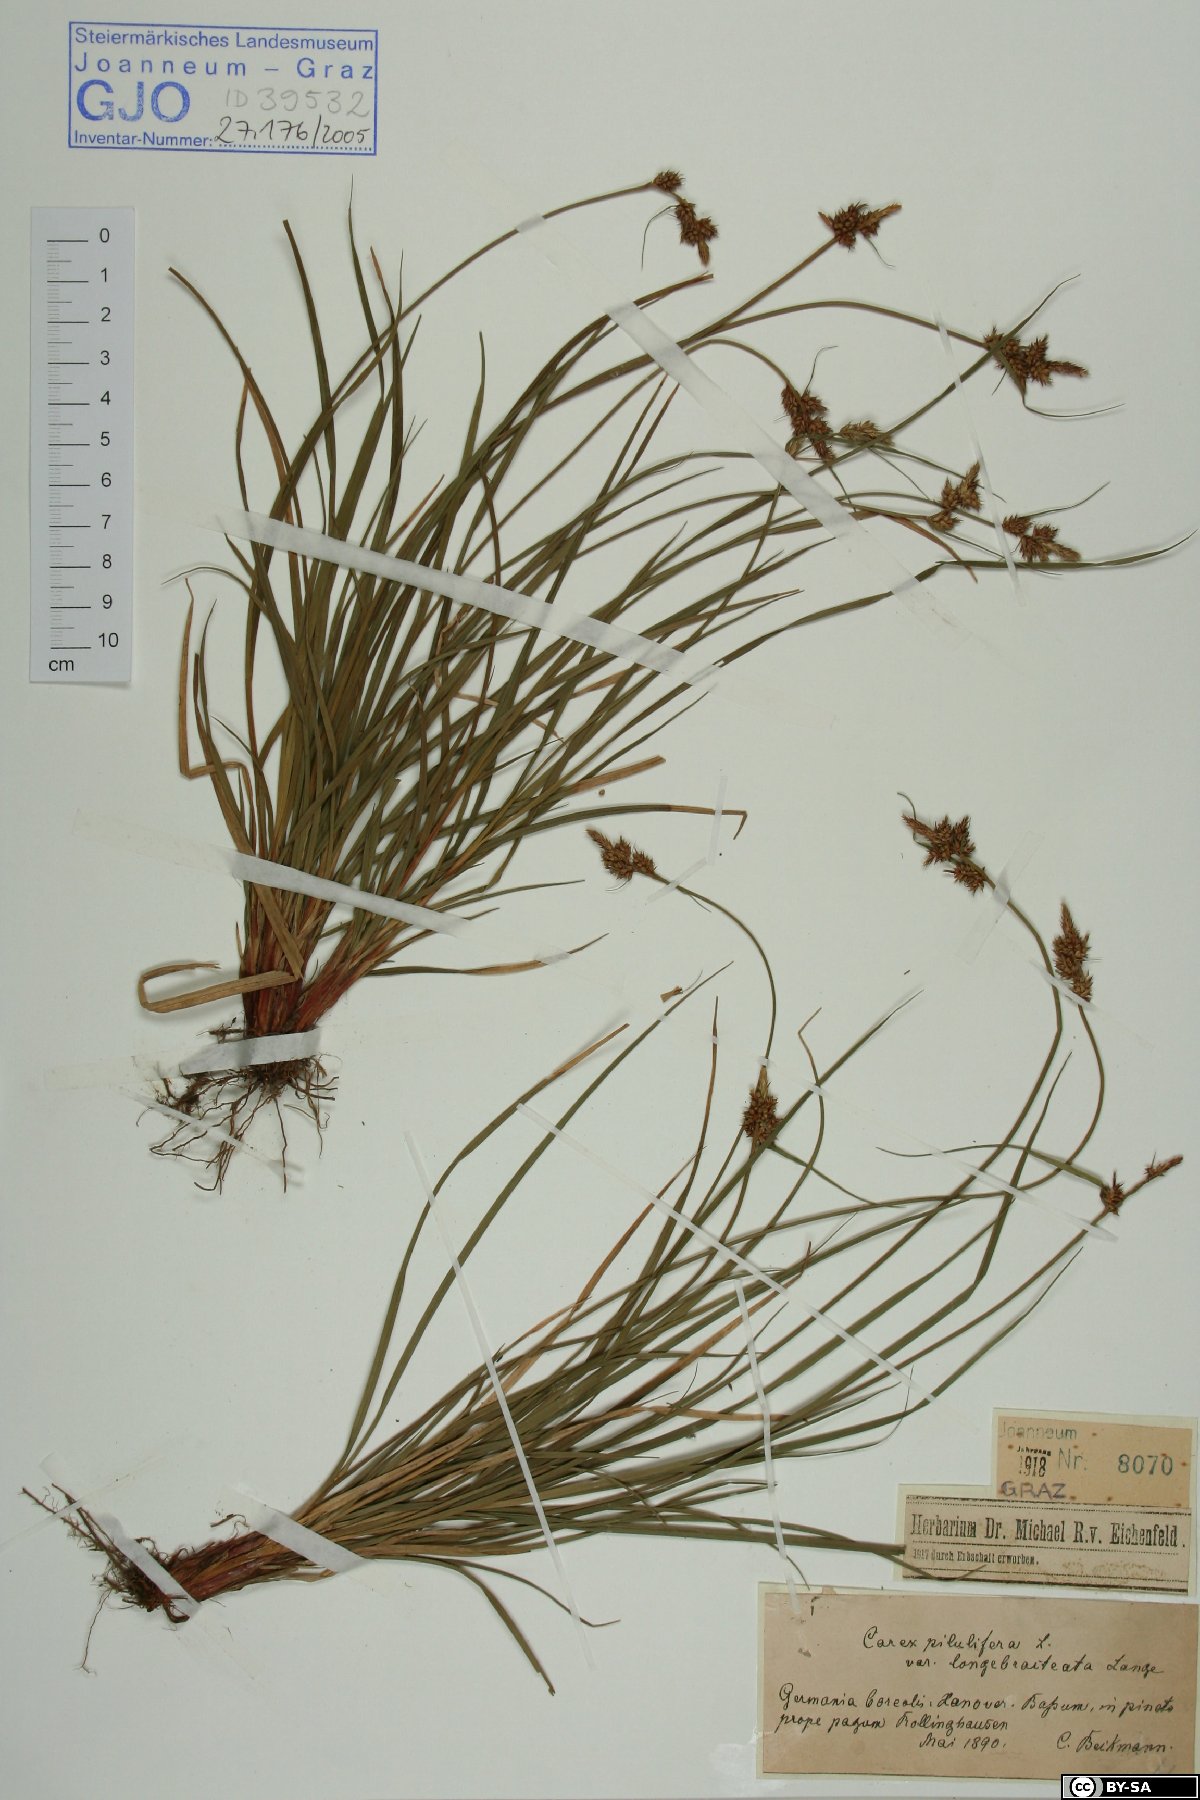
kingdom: Plantae
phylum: Tracheophyta
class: Liliopsida
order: Poales
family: Cyperaceae
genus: Carex
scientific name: Carex pilulifera
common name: Pill sedge
